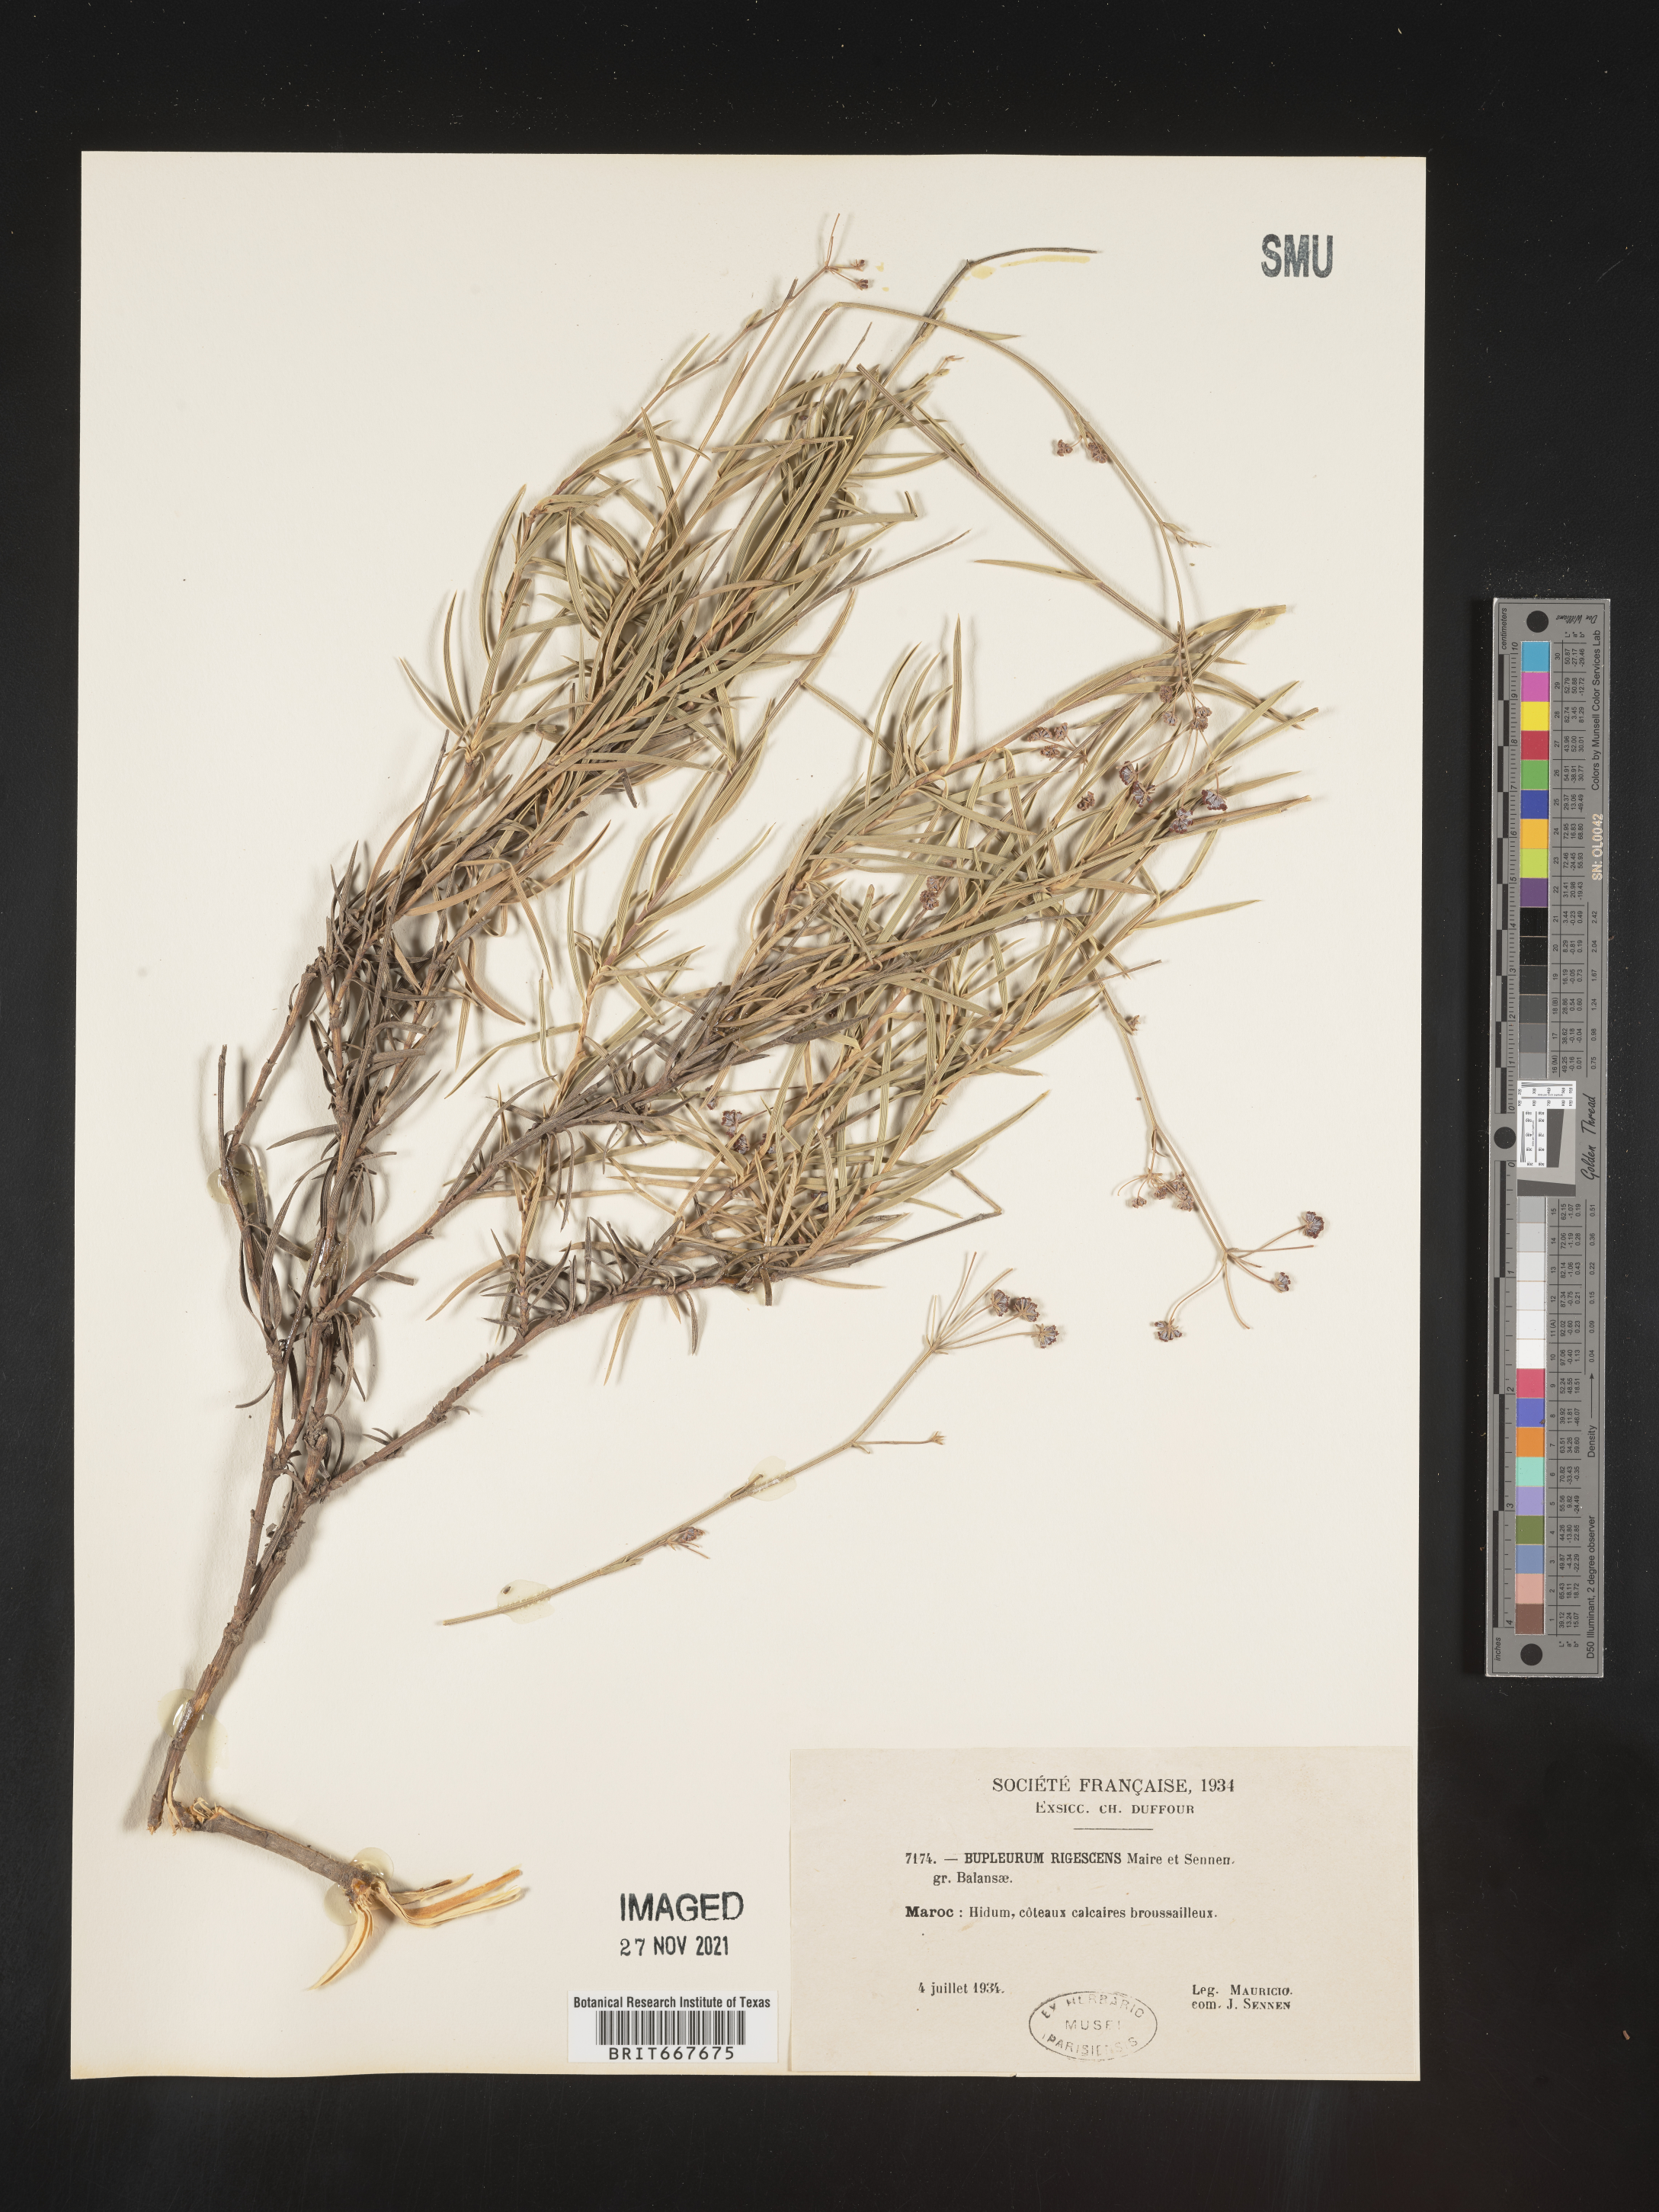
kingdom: Plantae
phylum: Tracheophyta
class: Magnoliopsida
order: Apiales
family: Apiaceae
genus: Bupleurum
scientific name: Bupleurum
